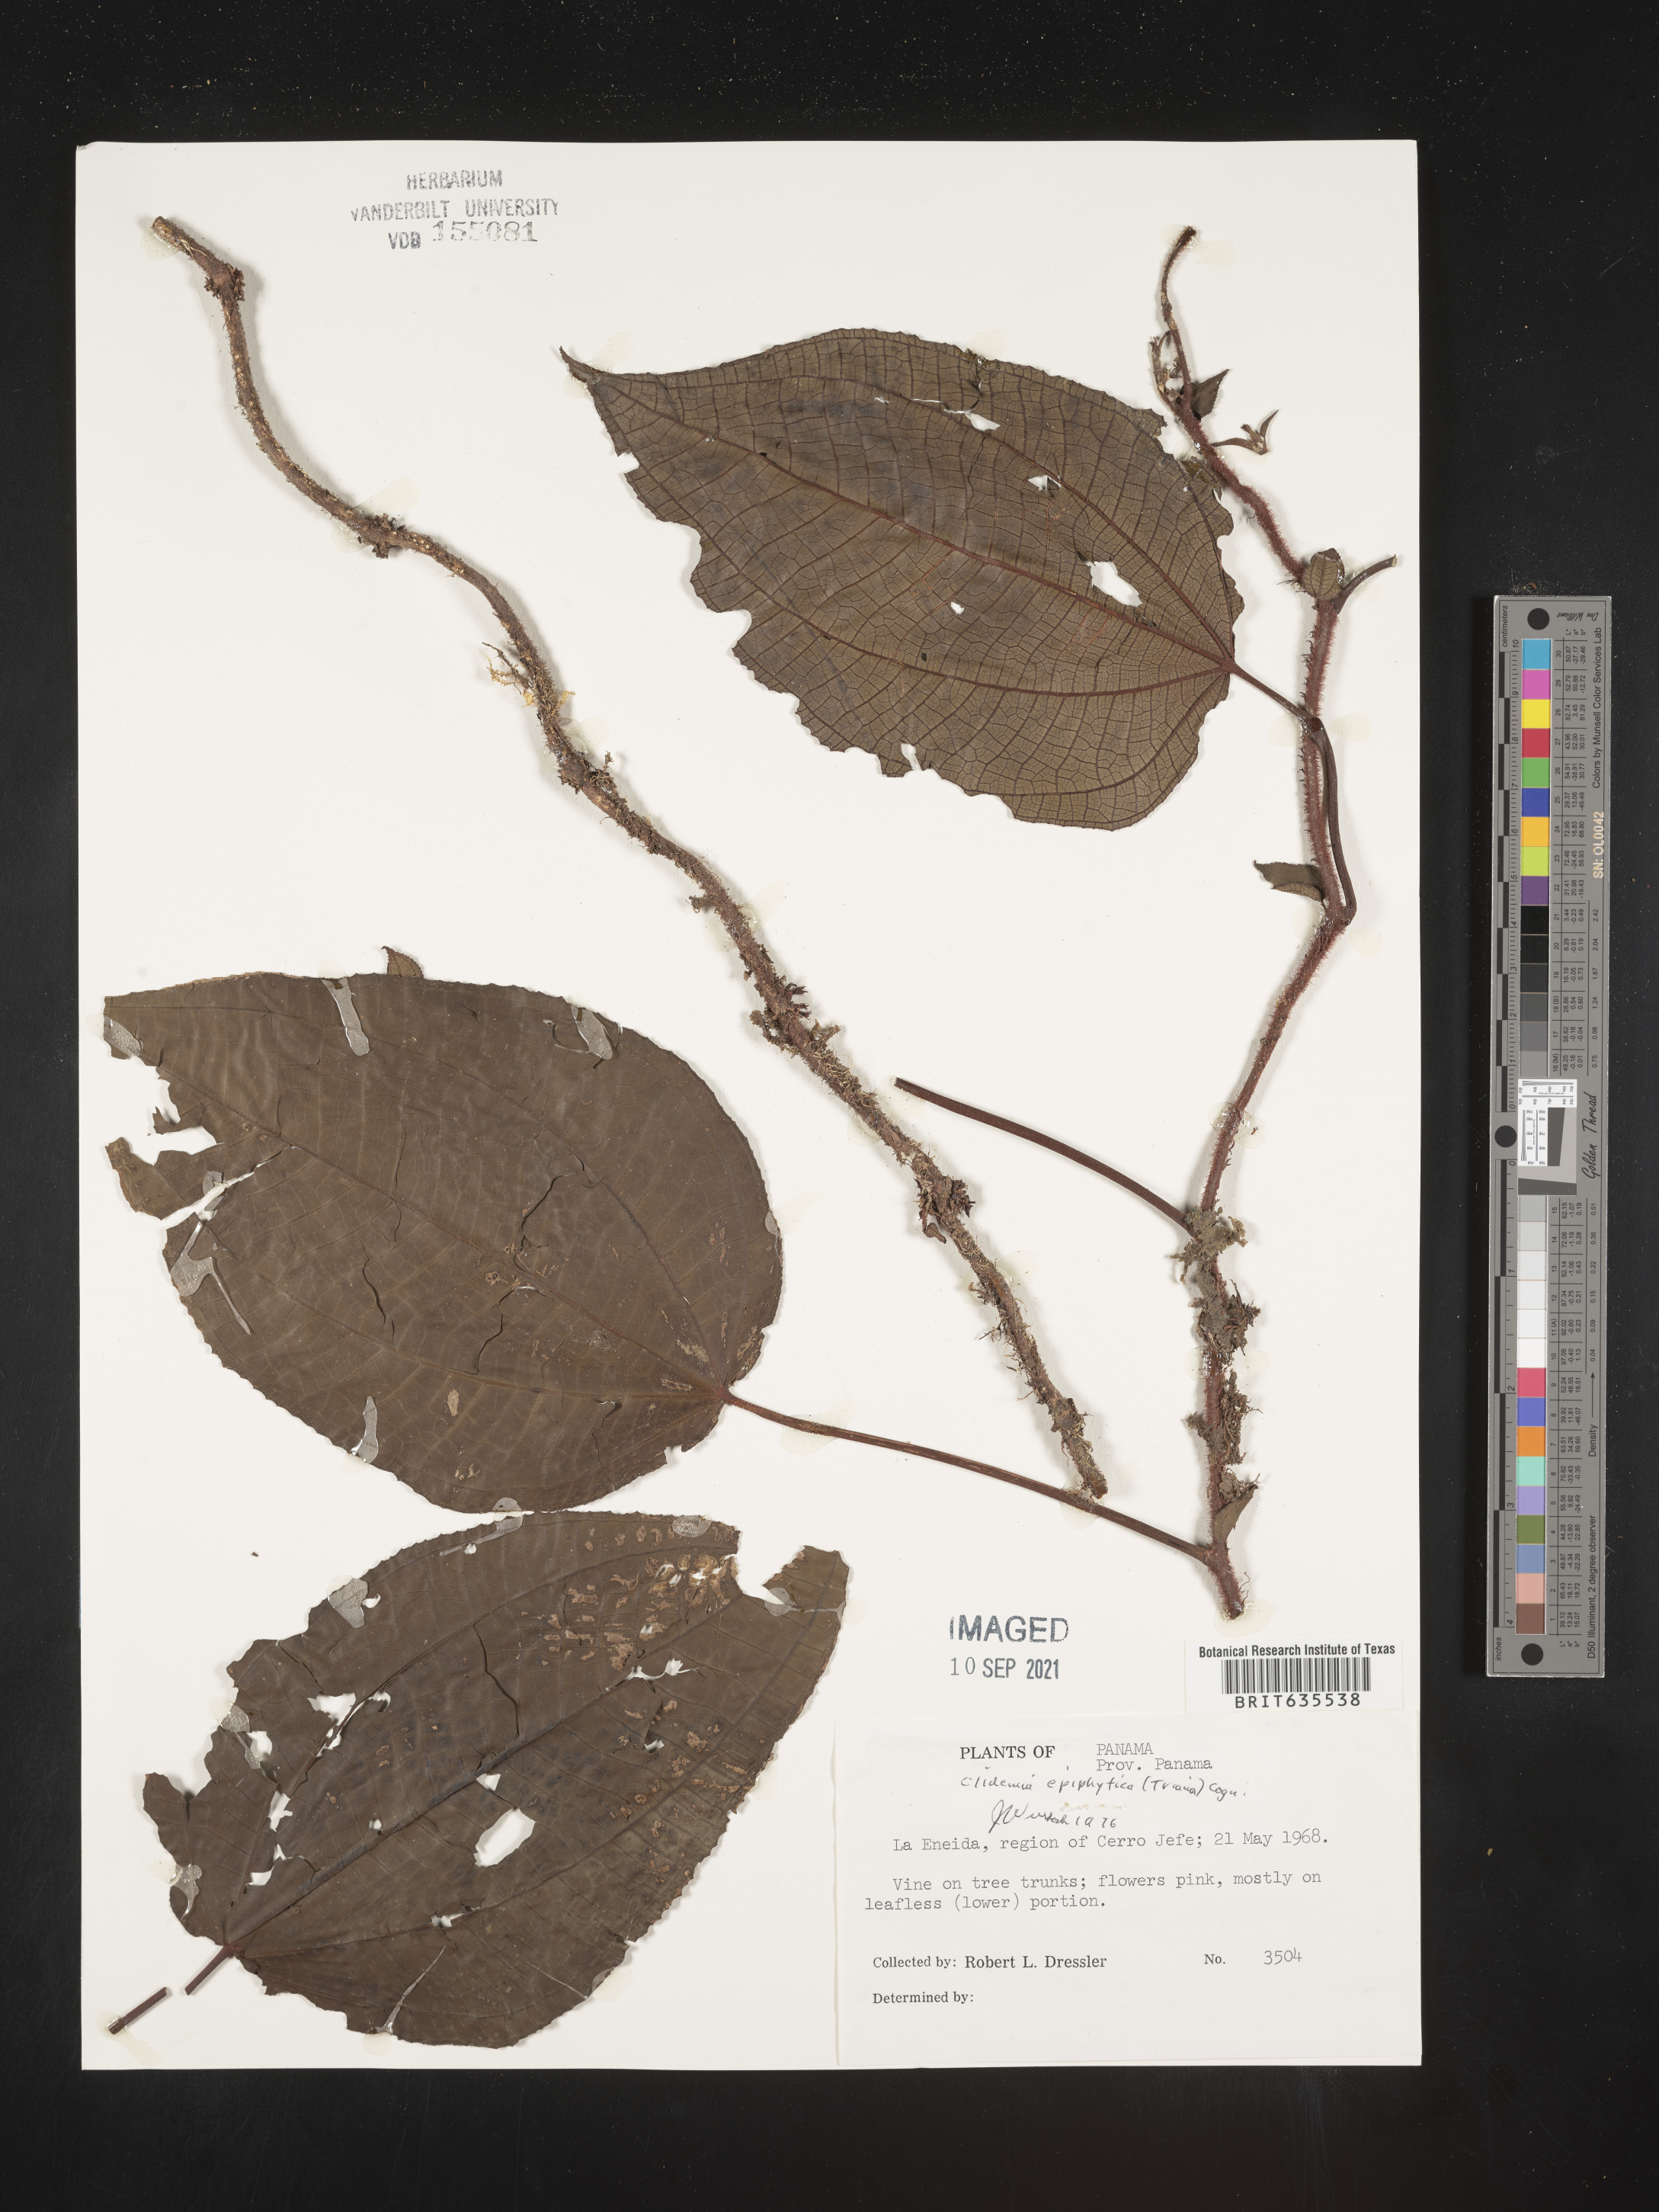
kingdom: Plantae
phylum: Tracheophyta
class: Magnoliopsida
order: Myrtales
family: Melastomataceae
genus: Miconia
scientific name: Miconia
